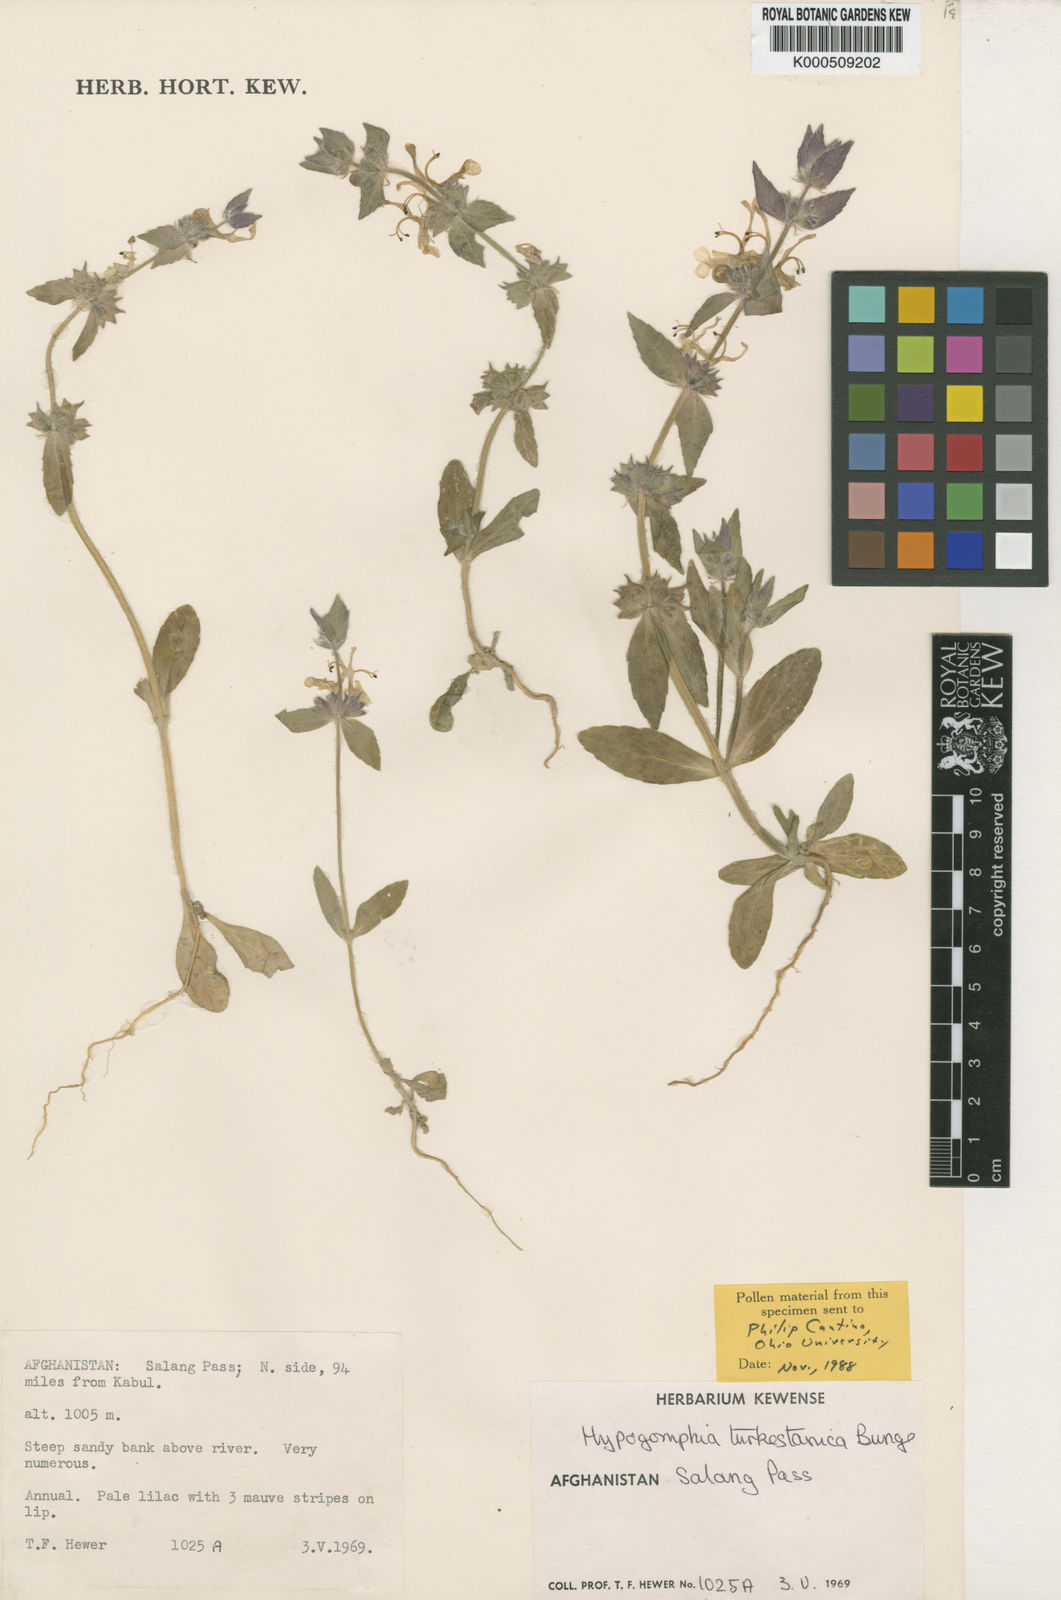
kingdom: Plantae
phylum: Tracheophyta
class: Magnoliopsida
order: Lamiales
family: Lamiaceae
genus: Hypogomphia
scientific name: Hypogomphia turkestana
